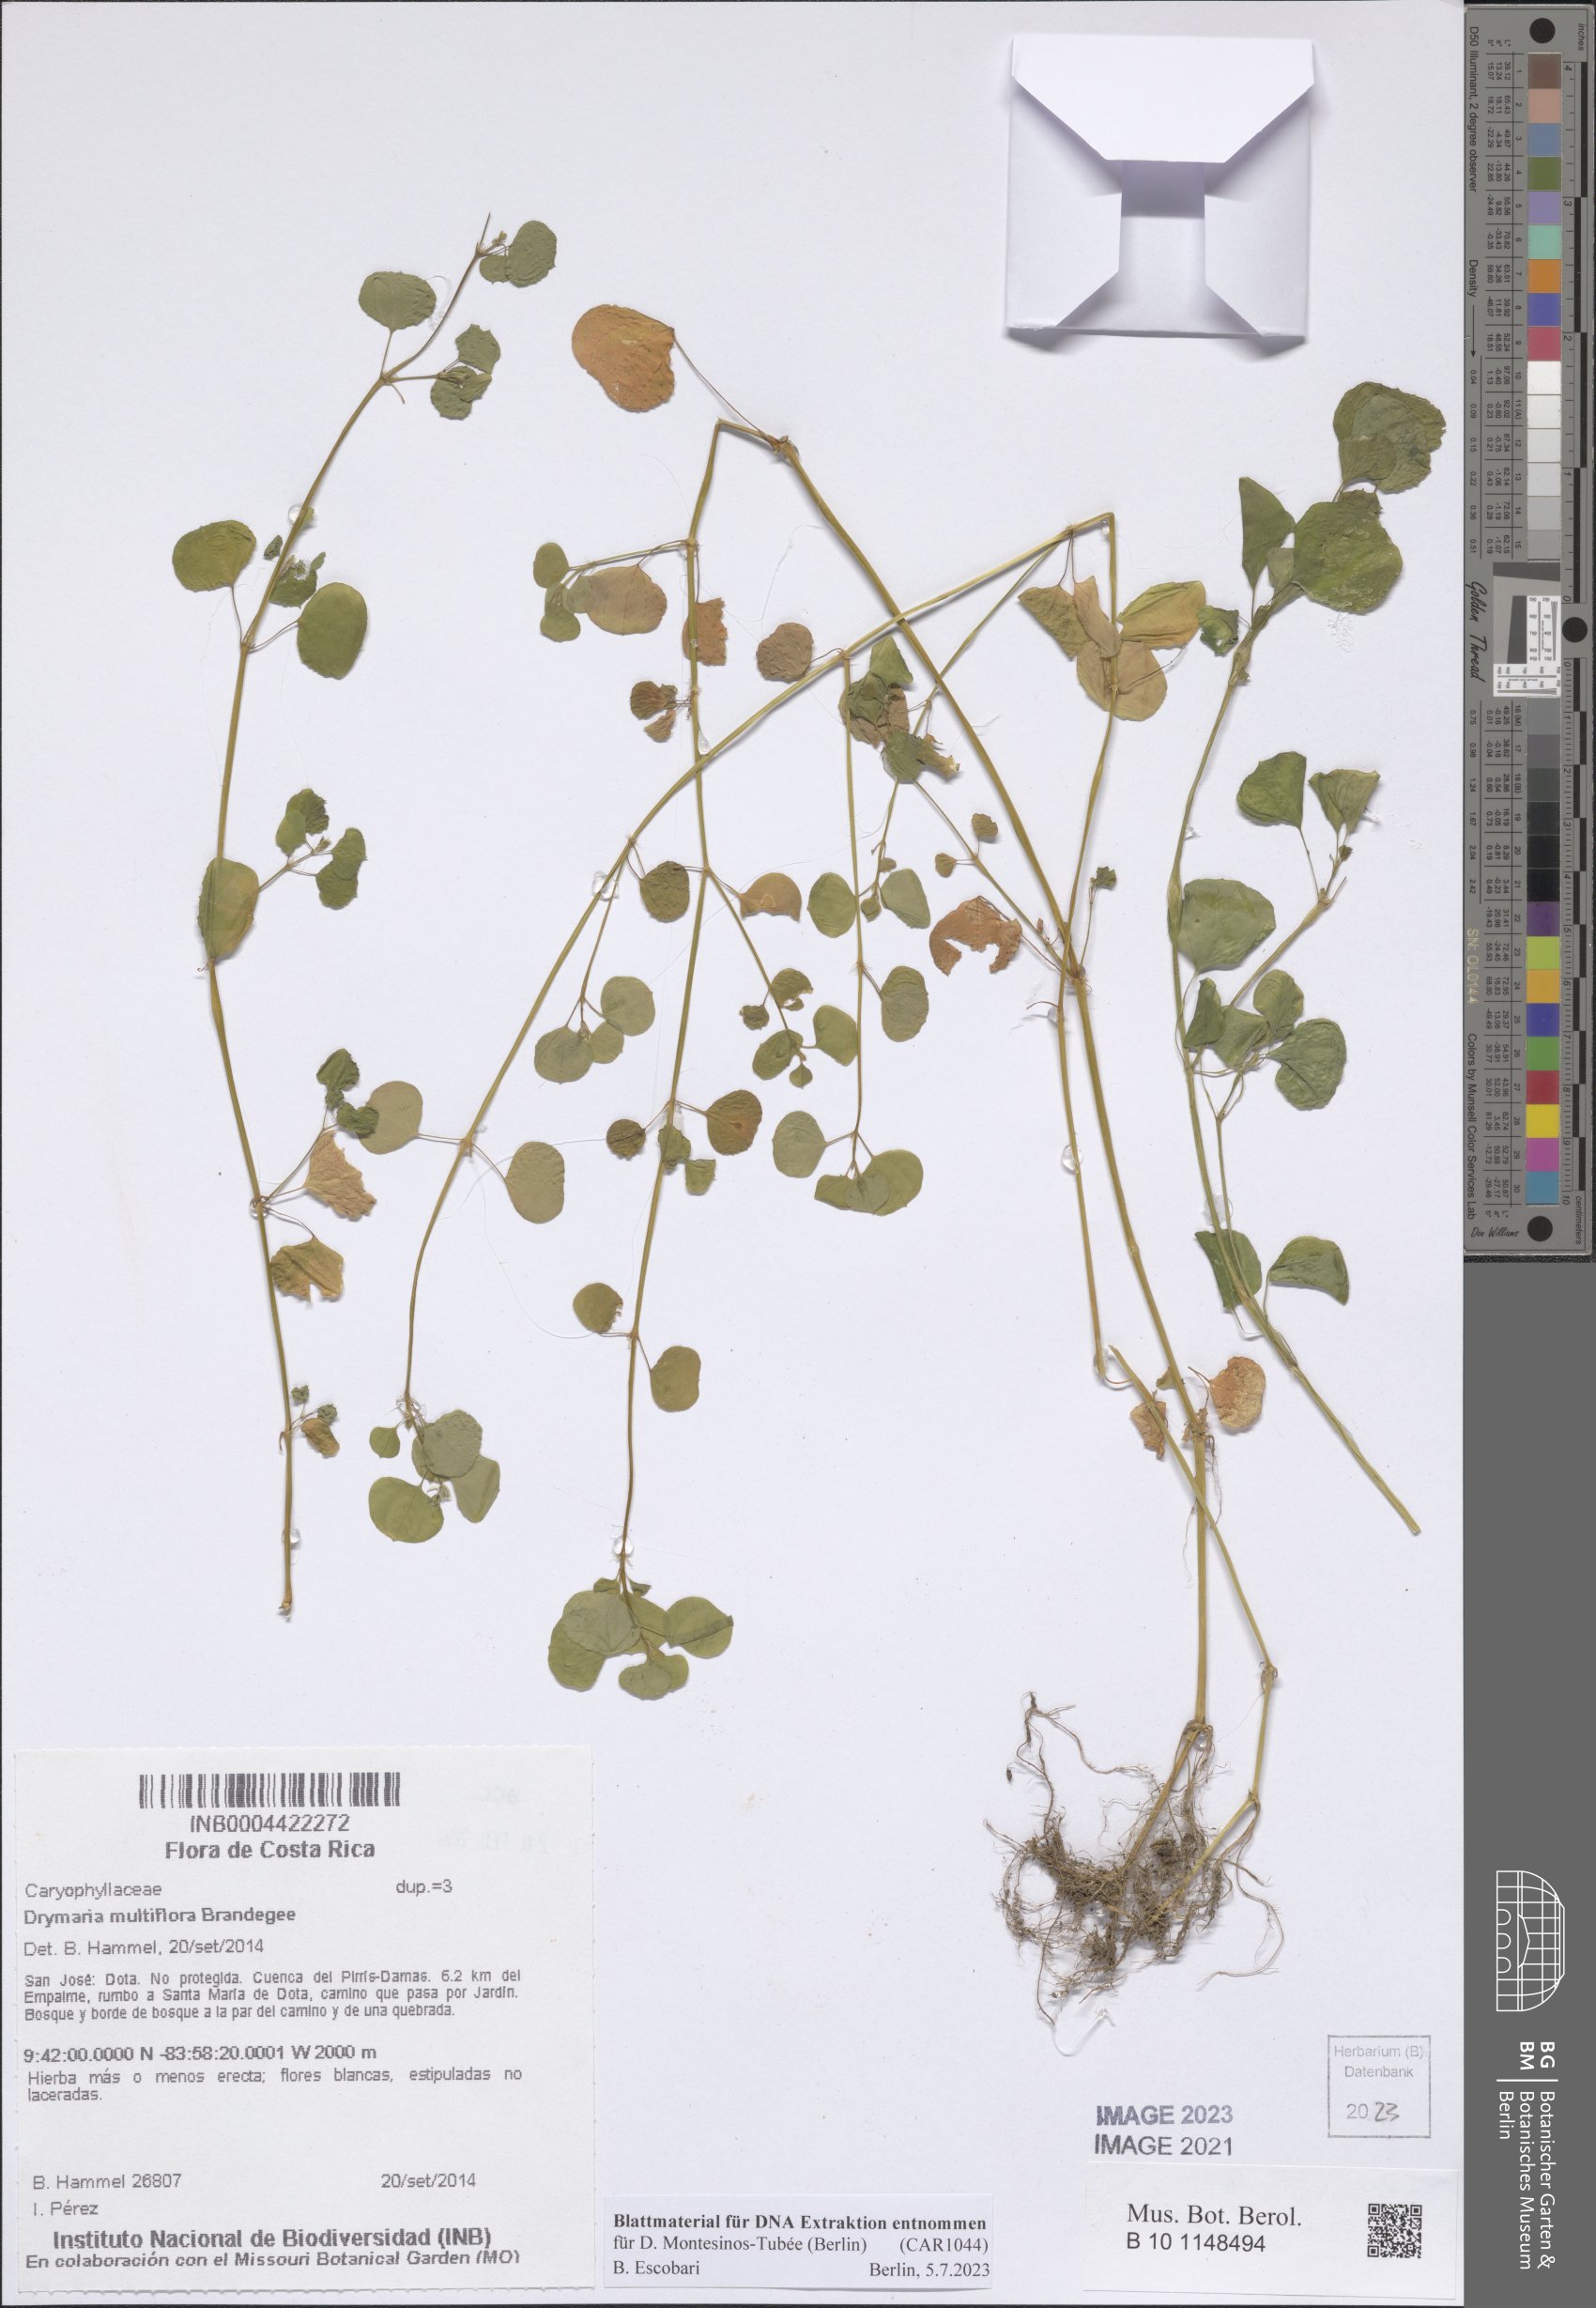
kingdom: Plantae
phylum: Tracheophyta
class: Magnoliopsida
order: Caryophyllales
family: Caryophyllaceae
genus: Drymaria
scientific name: Drymaria multiflora
